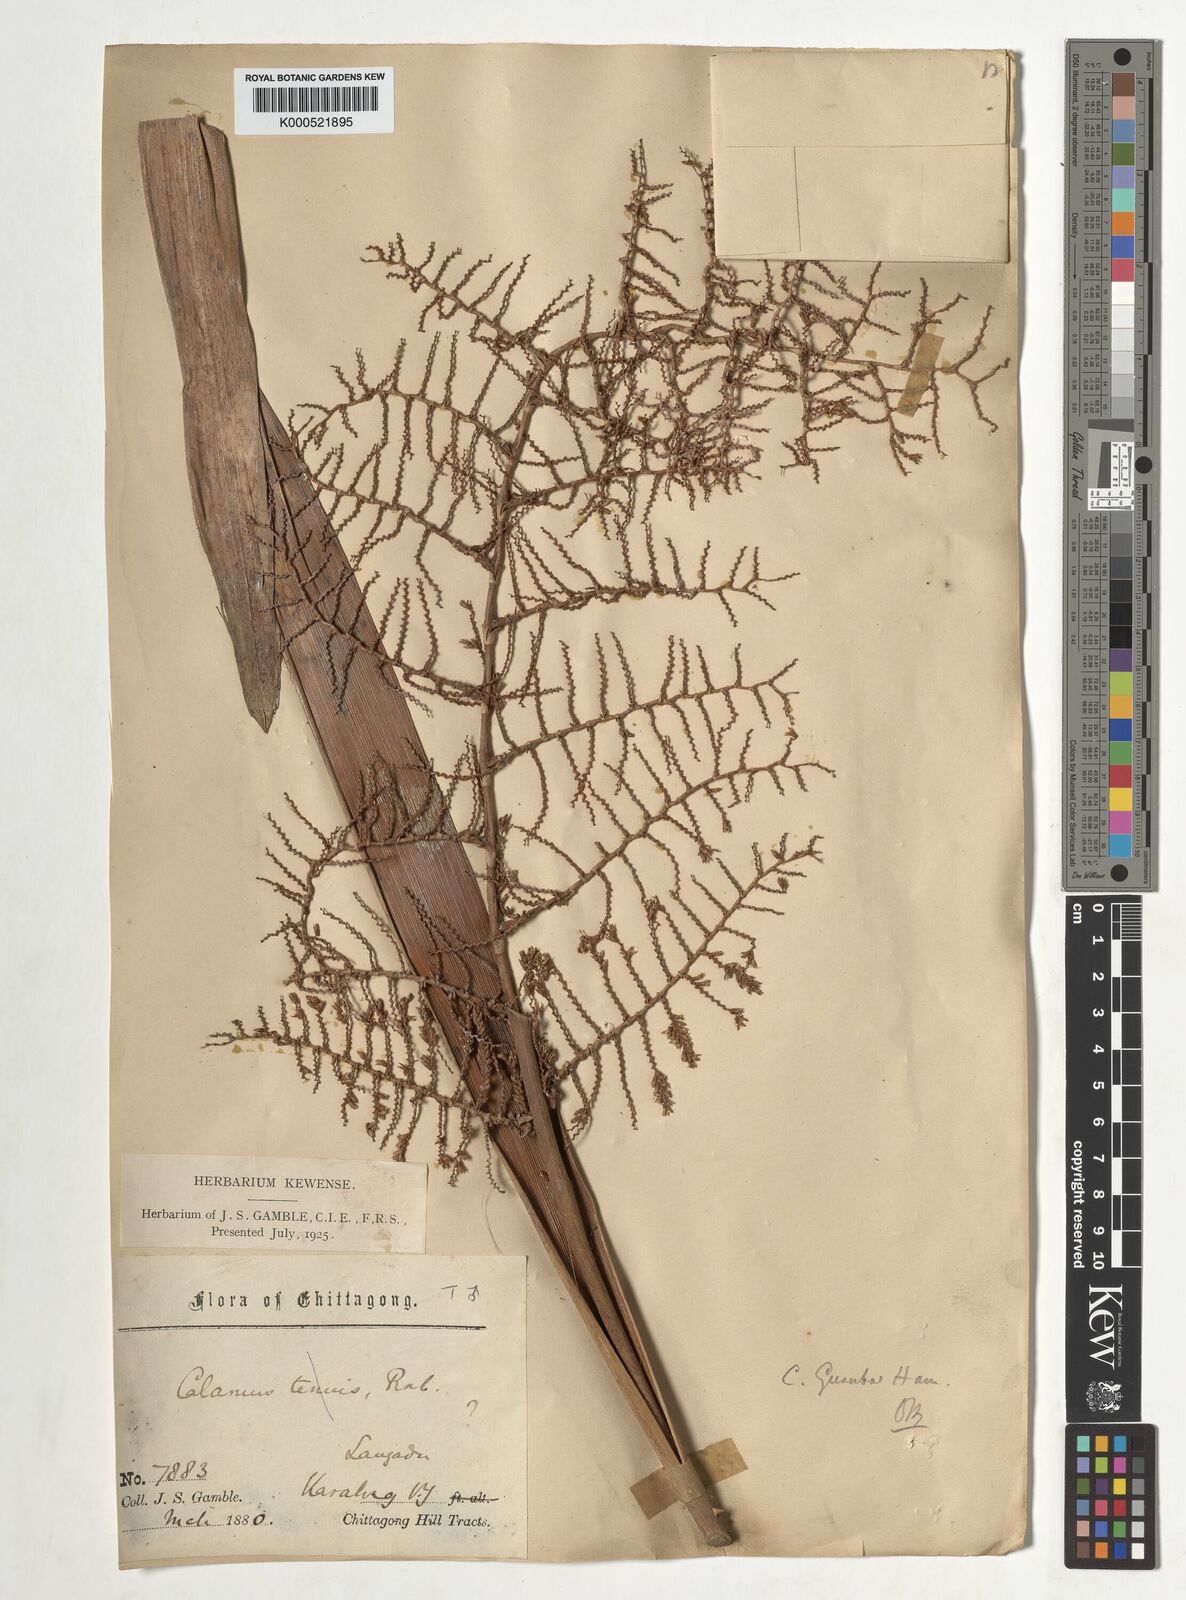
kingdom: Plantae
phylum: Tracheophyta
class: Liliopsida
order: Arecales
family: Arecaceae
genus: Calamus
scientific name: Calamus
